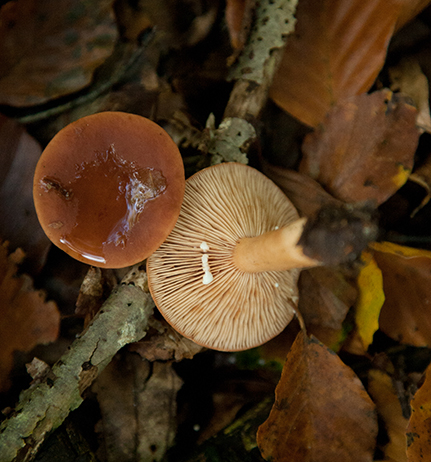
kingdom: Fungi
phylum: Basidiomycota
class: Agaricomycetes
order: Russulales
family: Russulaceae
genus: Lactarius
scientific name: Lactarius subdulcis
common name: sødlig mælkehat
